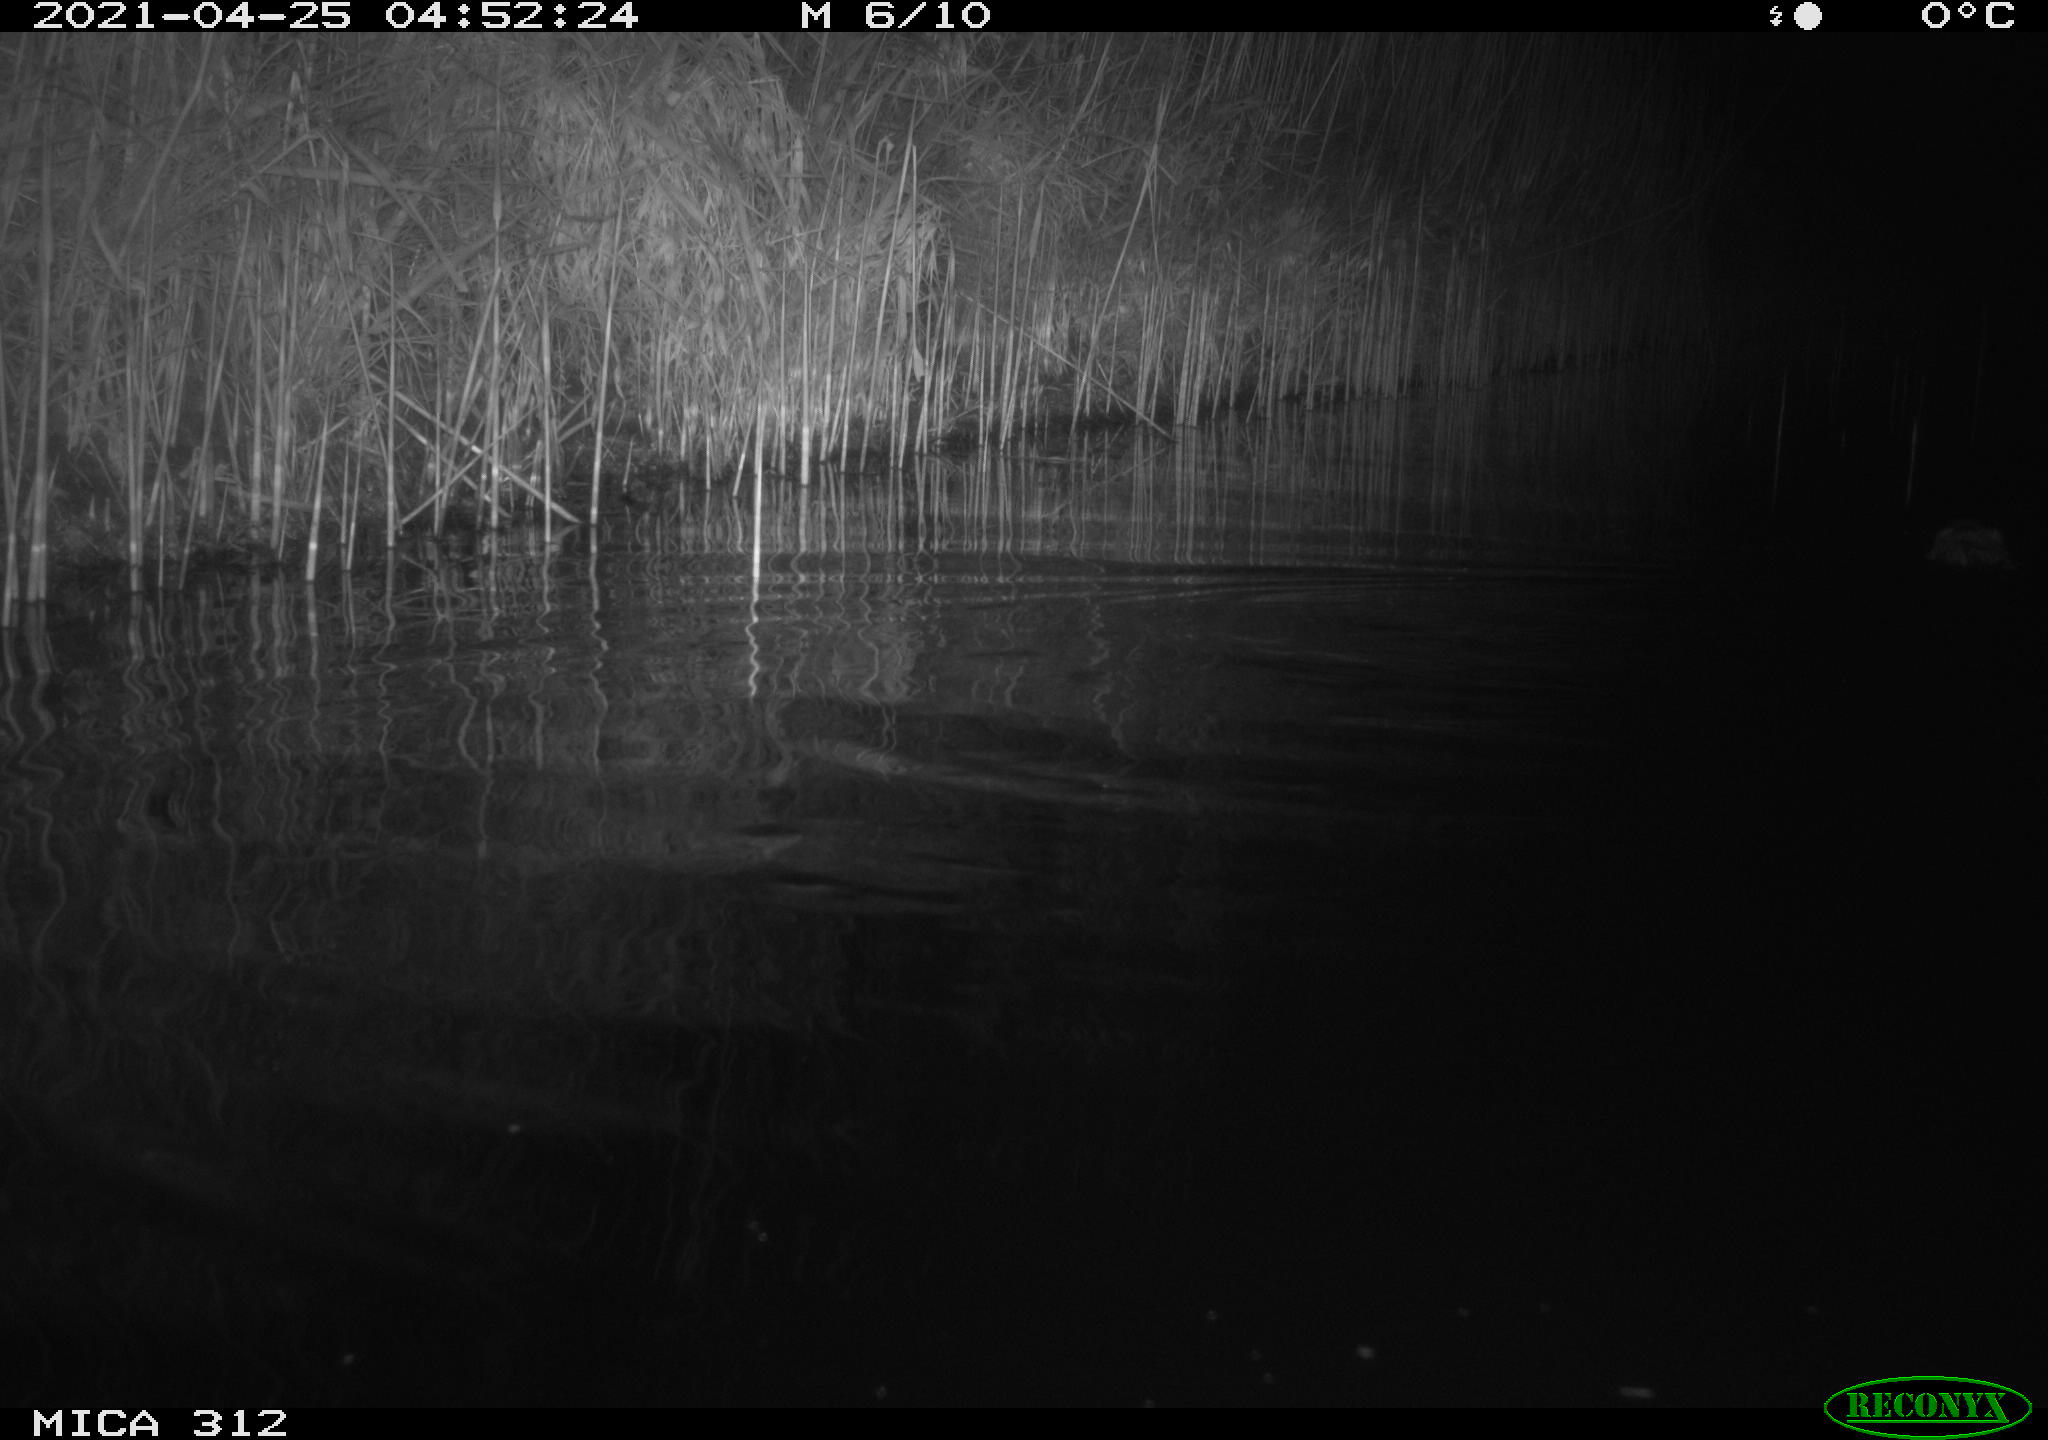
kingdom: Animalia
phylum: Chordata
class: Mammalia
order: Rodentia
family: Cricetidae
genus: Ondatra
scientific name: Ondatra zibethicus
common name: Muskrat
